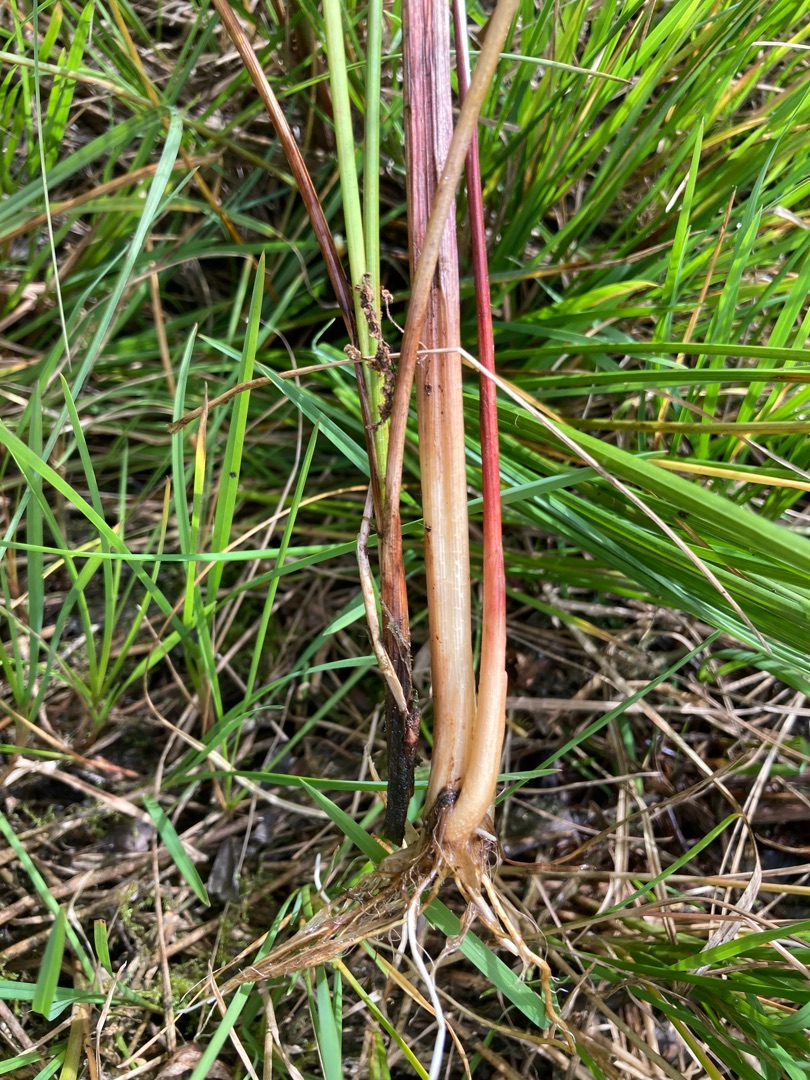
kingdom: Plantae
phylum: Tracheophyta
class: Liliopsida
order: Poales
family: Cyperaceae
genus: Carex
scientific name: Carex rostrata
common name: Næb-star
